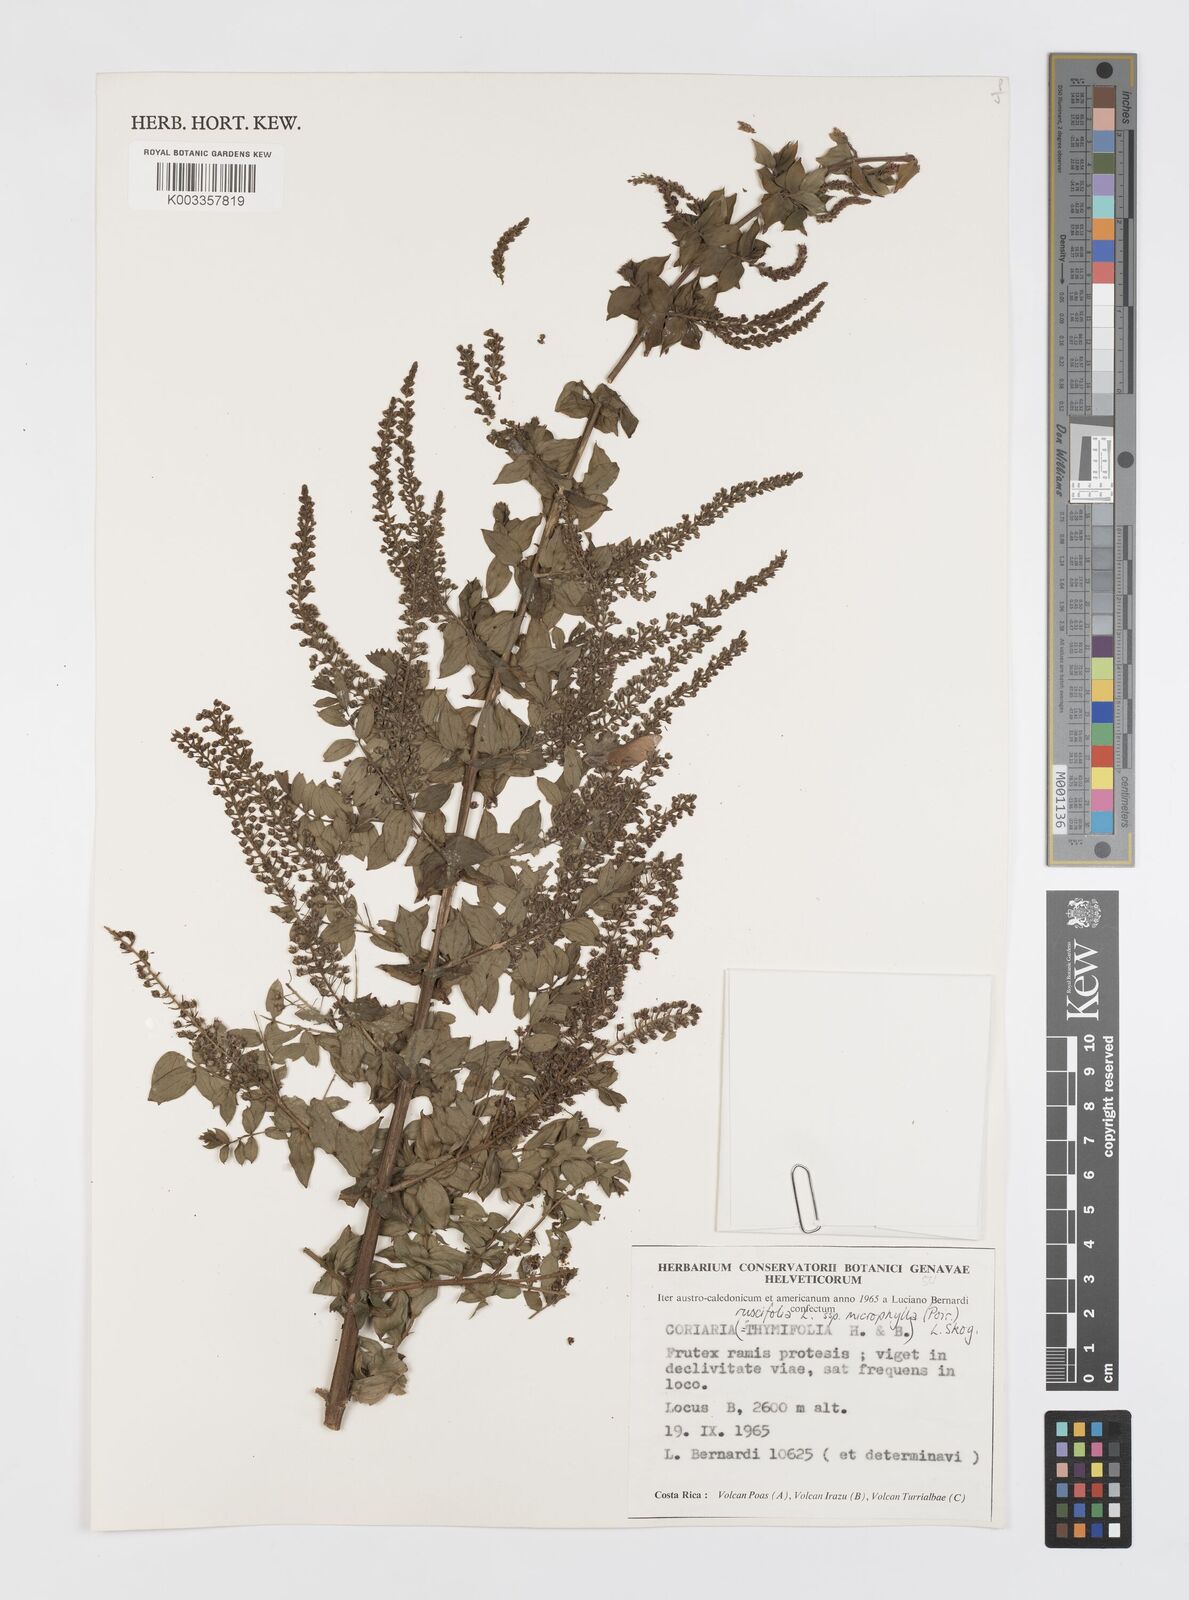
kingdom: Plantae
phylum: Tracheophyta
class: Magnoliopsida
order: Cucurbitales
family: Coriariaceae
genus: Coriaria
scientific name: Coriaria ruscifolia
